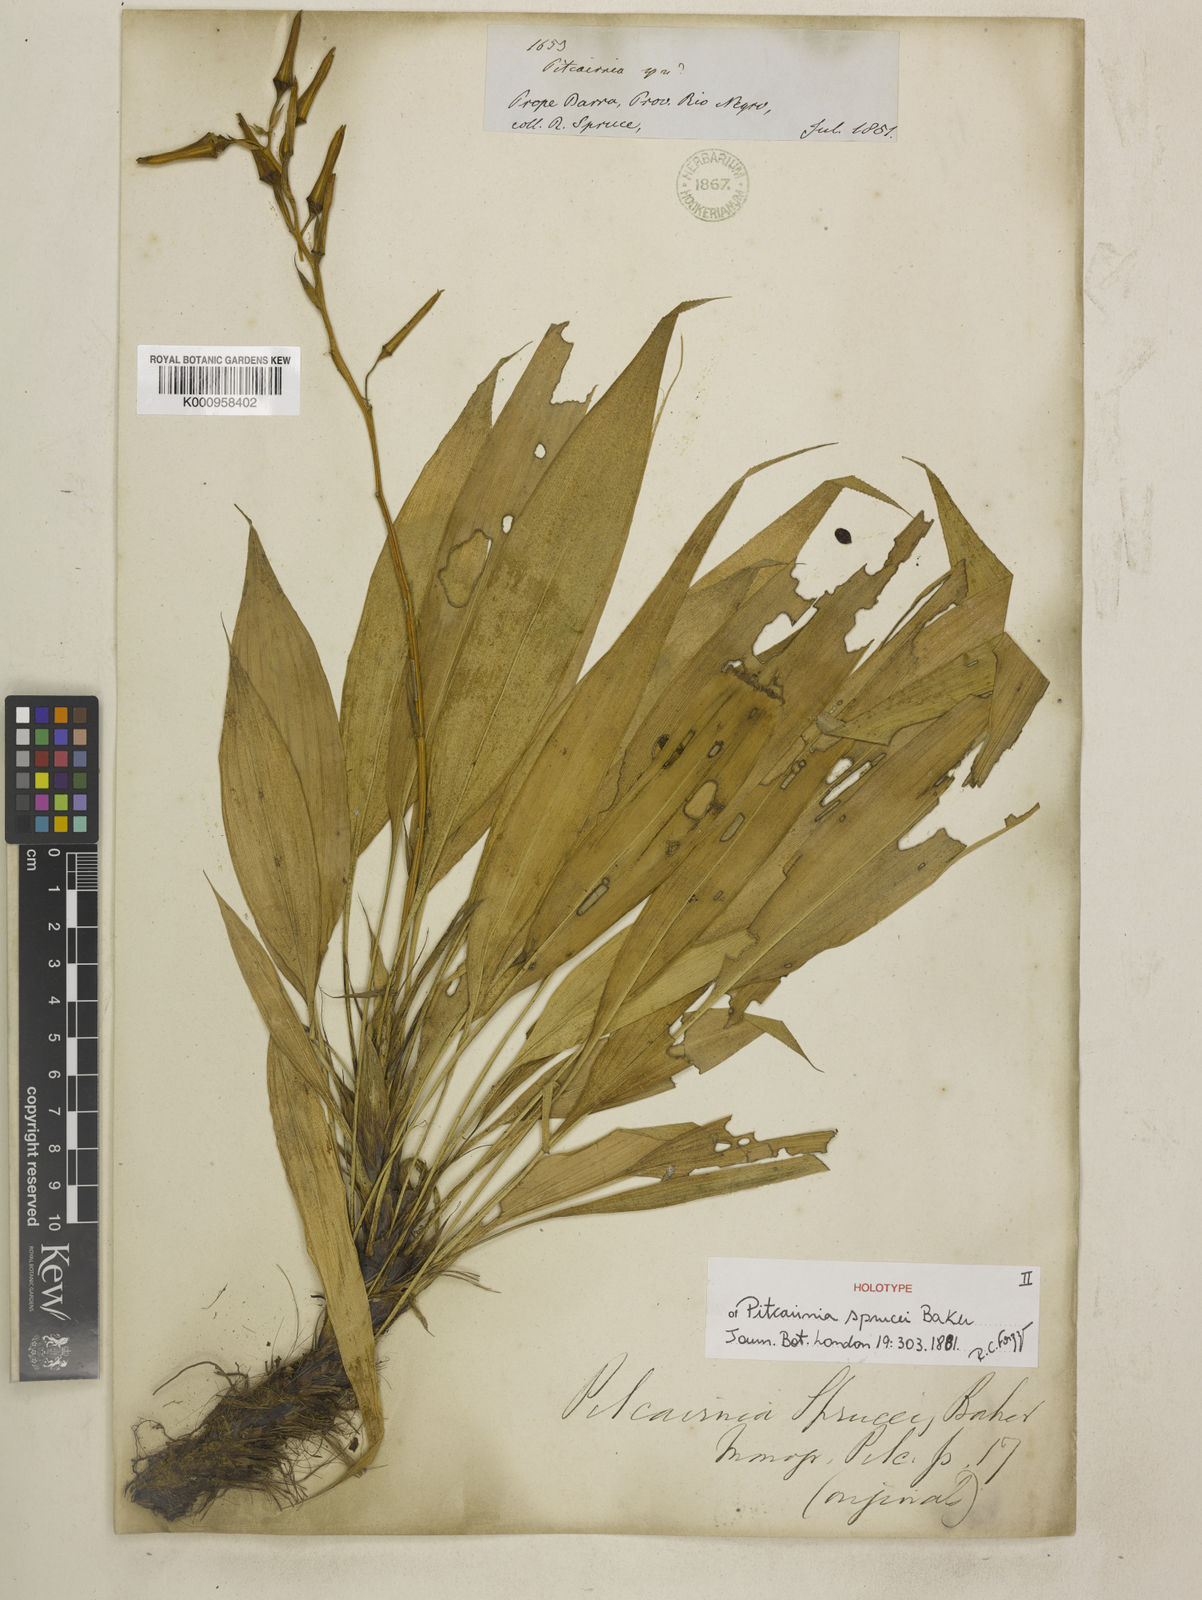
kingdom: Plantae
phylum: Tracheophyta
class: Liliopsida
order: Poales
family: Bromeliaceae
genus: Pitcairnia
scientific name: Pitcairnia sprucei
